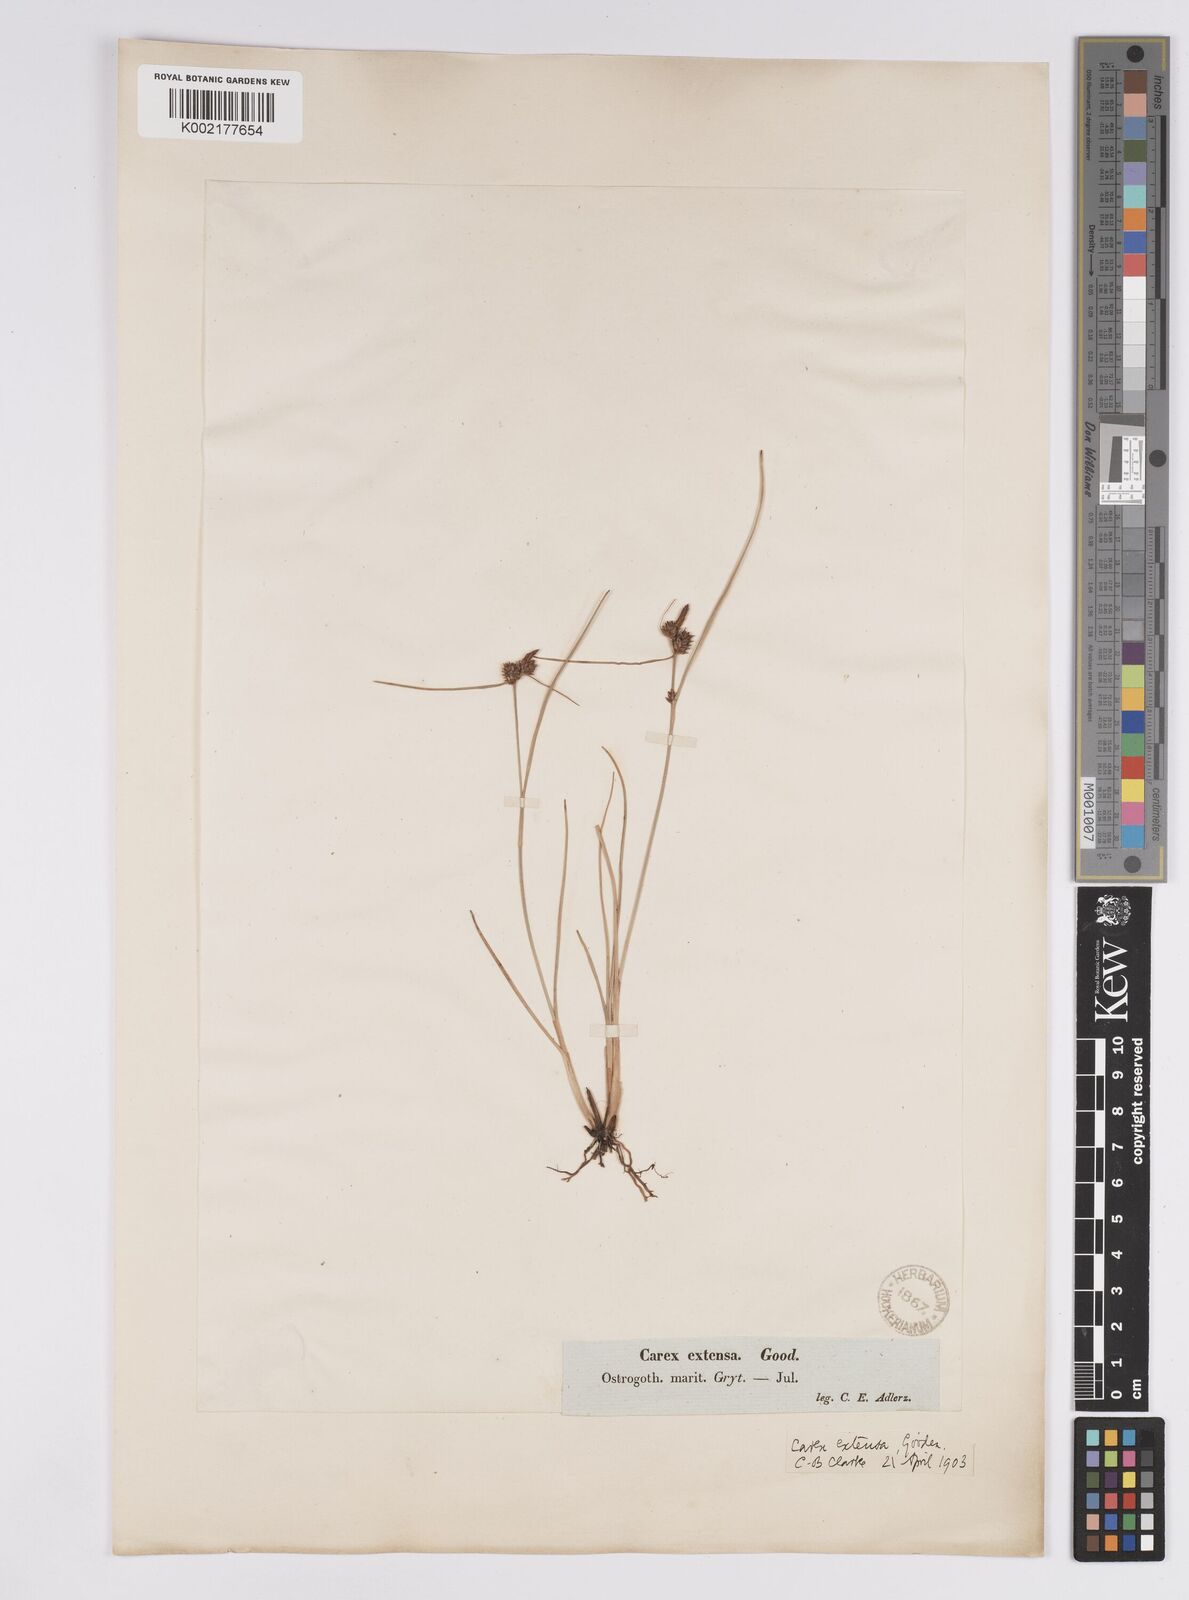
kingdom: Plantae
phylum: Tracheophyta
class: Liliopsida
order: Poales
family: Cyperaceae
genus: Carex
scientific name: Carex extensa
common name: Long-bracted sedge
